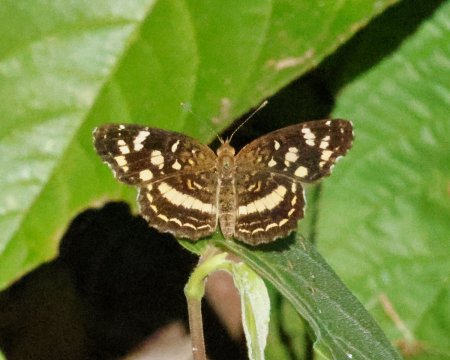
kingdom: Animalia
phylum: Arthropoda
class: Insecta
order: Lepidoptera
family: Nymphalidae
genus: Anthanassa
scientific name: Anthanassa tulcis
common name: Pale-banded Crescent
